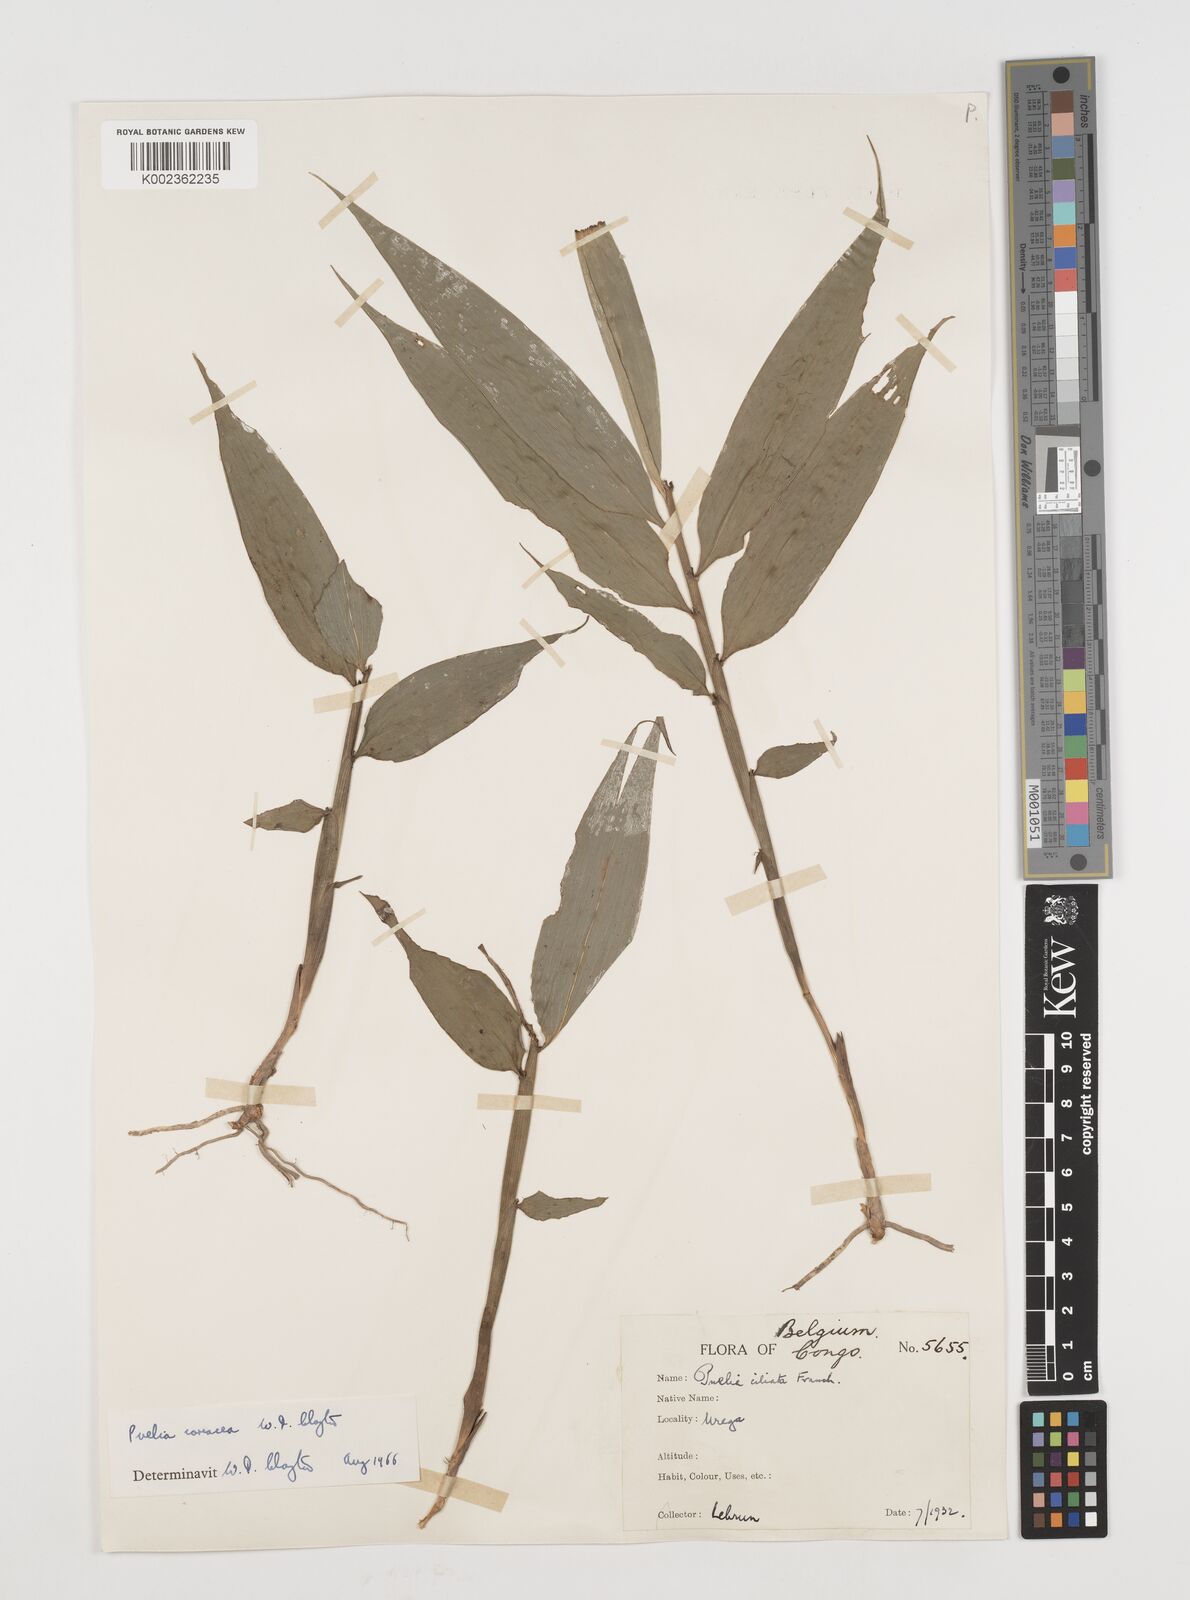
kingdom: Plantae
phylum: Tracheophyta
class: Liliopsida
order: Poales
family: Poaceae
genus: Puelia
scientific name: Puelia coriacea
